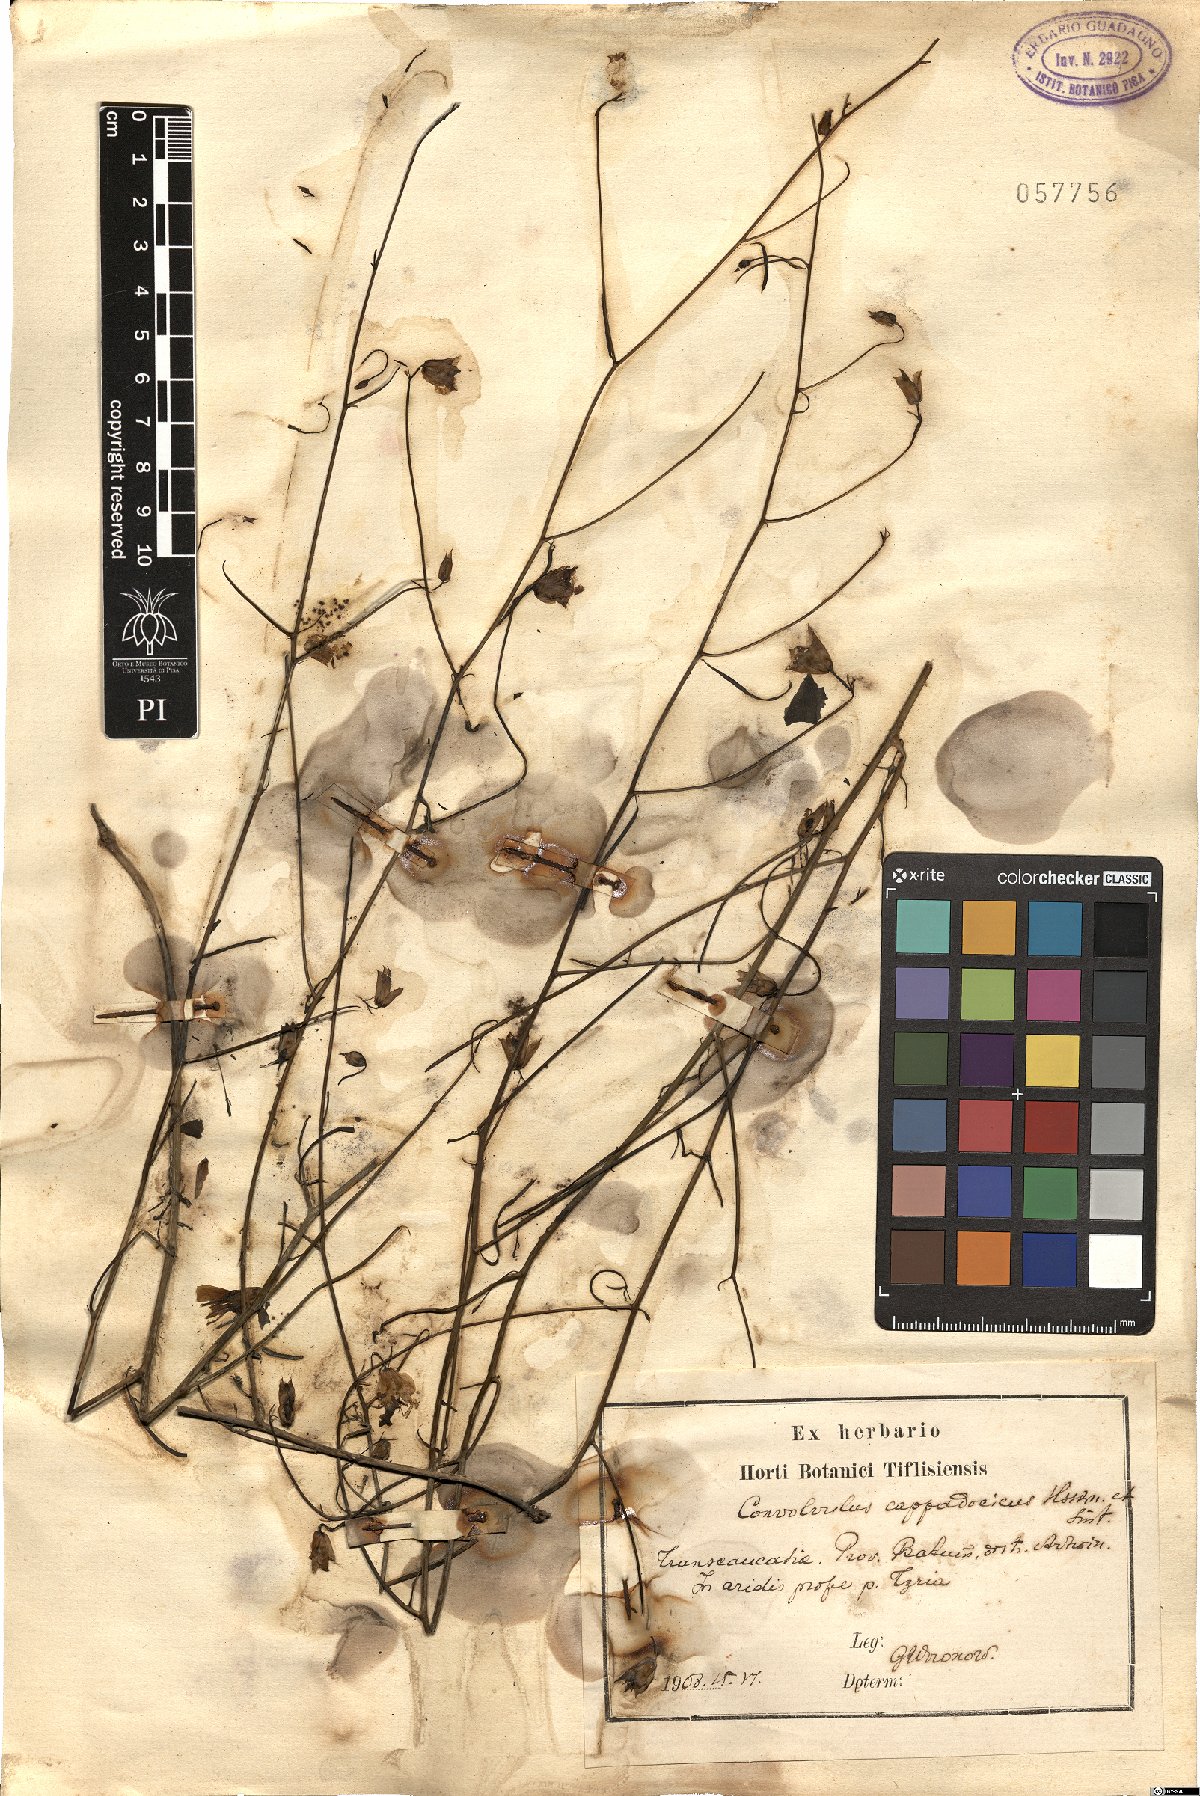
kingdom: Plantae
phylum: Tracheophyta
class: Magnoliopsida
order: Solanales
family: Convolvulaceae
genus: Convolvulus
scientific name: Convolvulus pseudoscammonia
